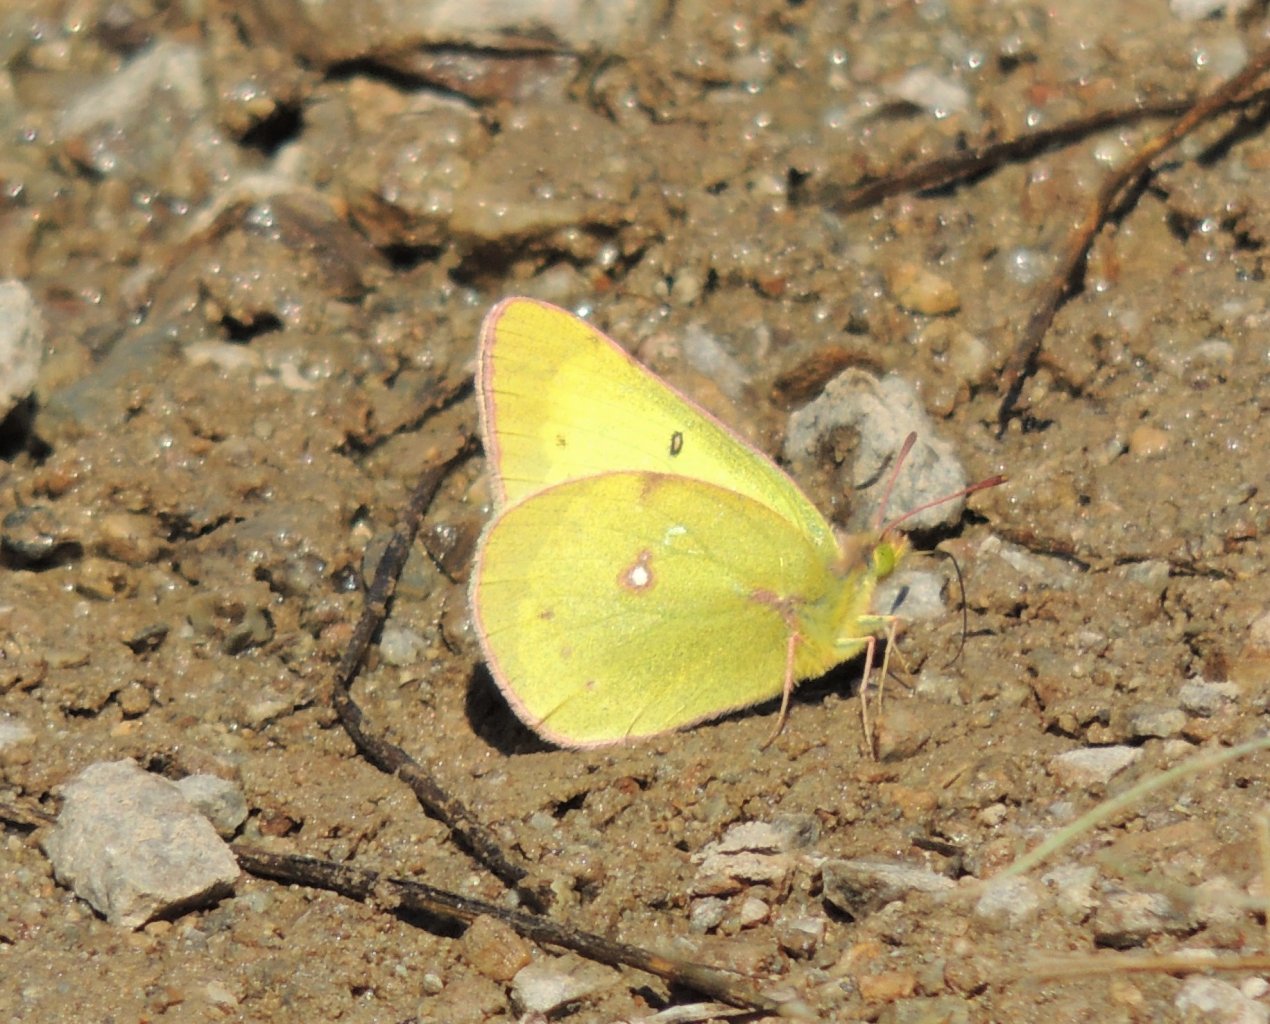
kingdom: Animalia
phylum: Arthropoda
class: Insecta
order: Lepidoptera
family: Pieridae
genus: Colias
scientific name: Colias eurytheme
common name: Orange Sulphur
